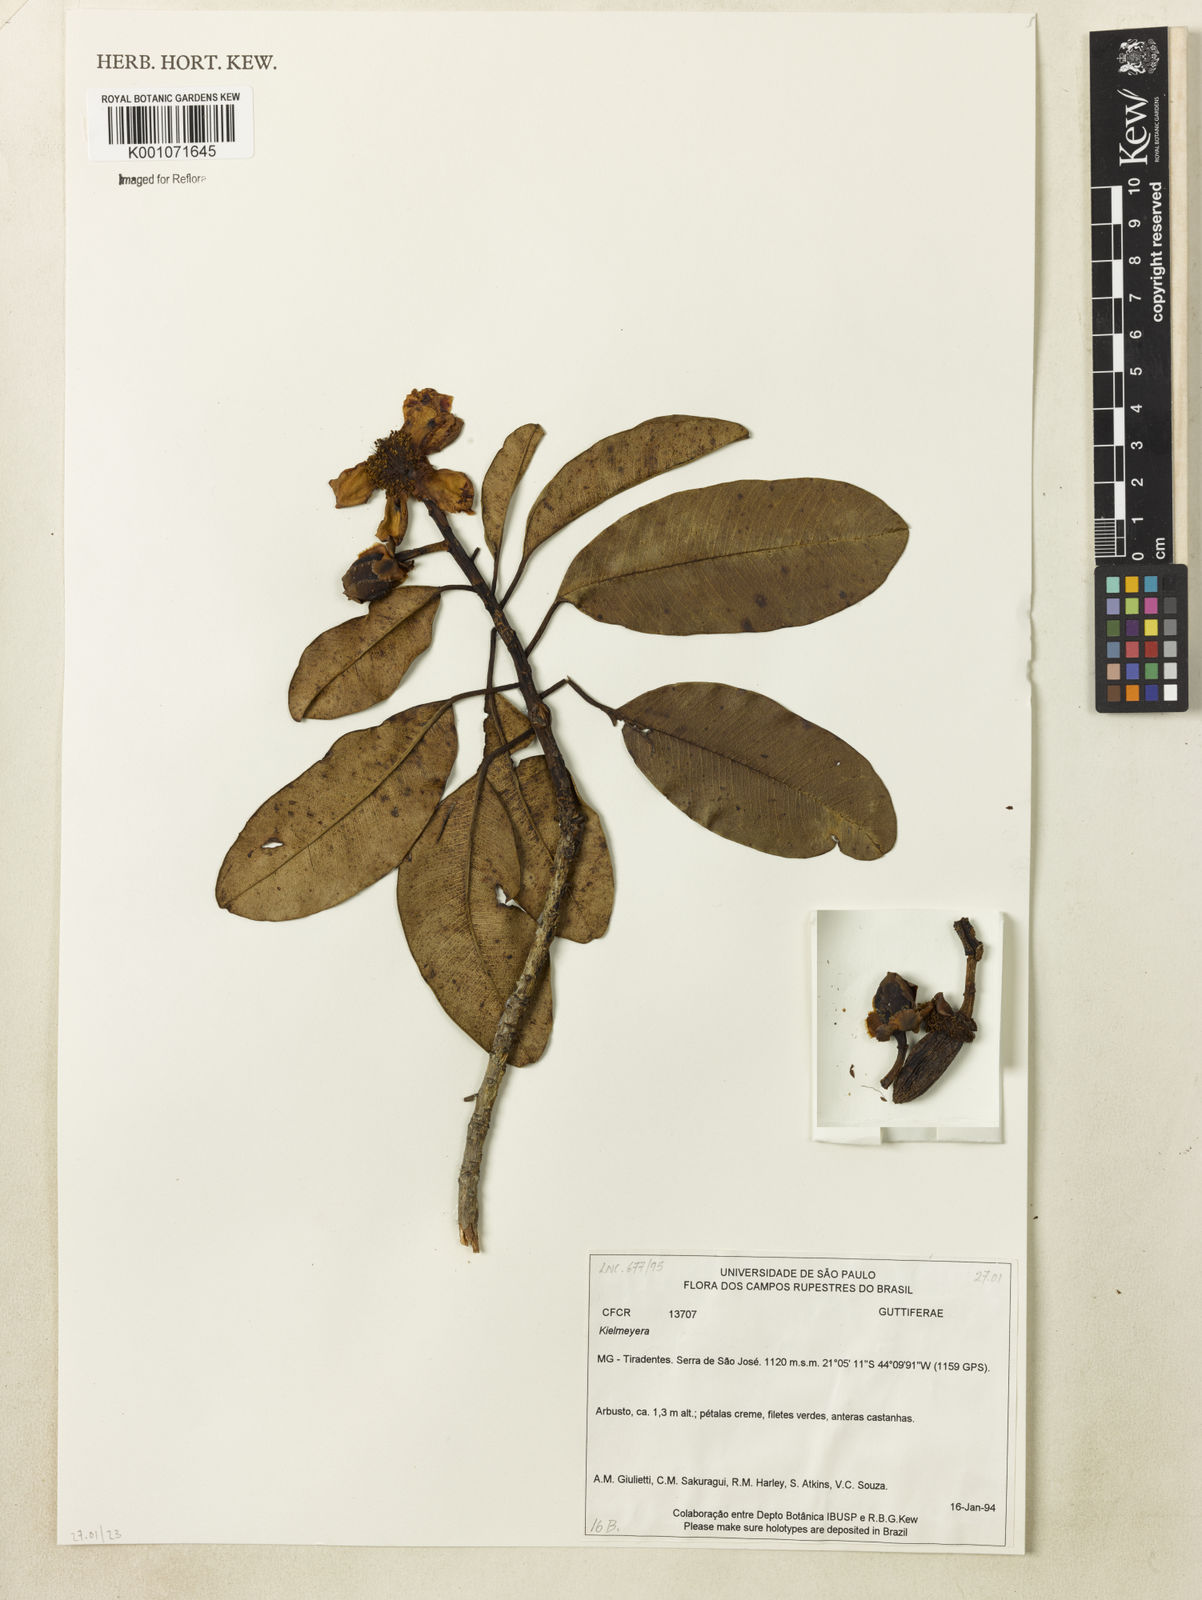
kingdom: Plantae
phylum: Tracheophyta
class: Magnoliopsida
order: Malpighiales
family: Calophyllaceae
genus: Kielmeyera
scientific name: Kielmeyera
